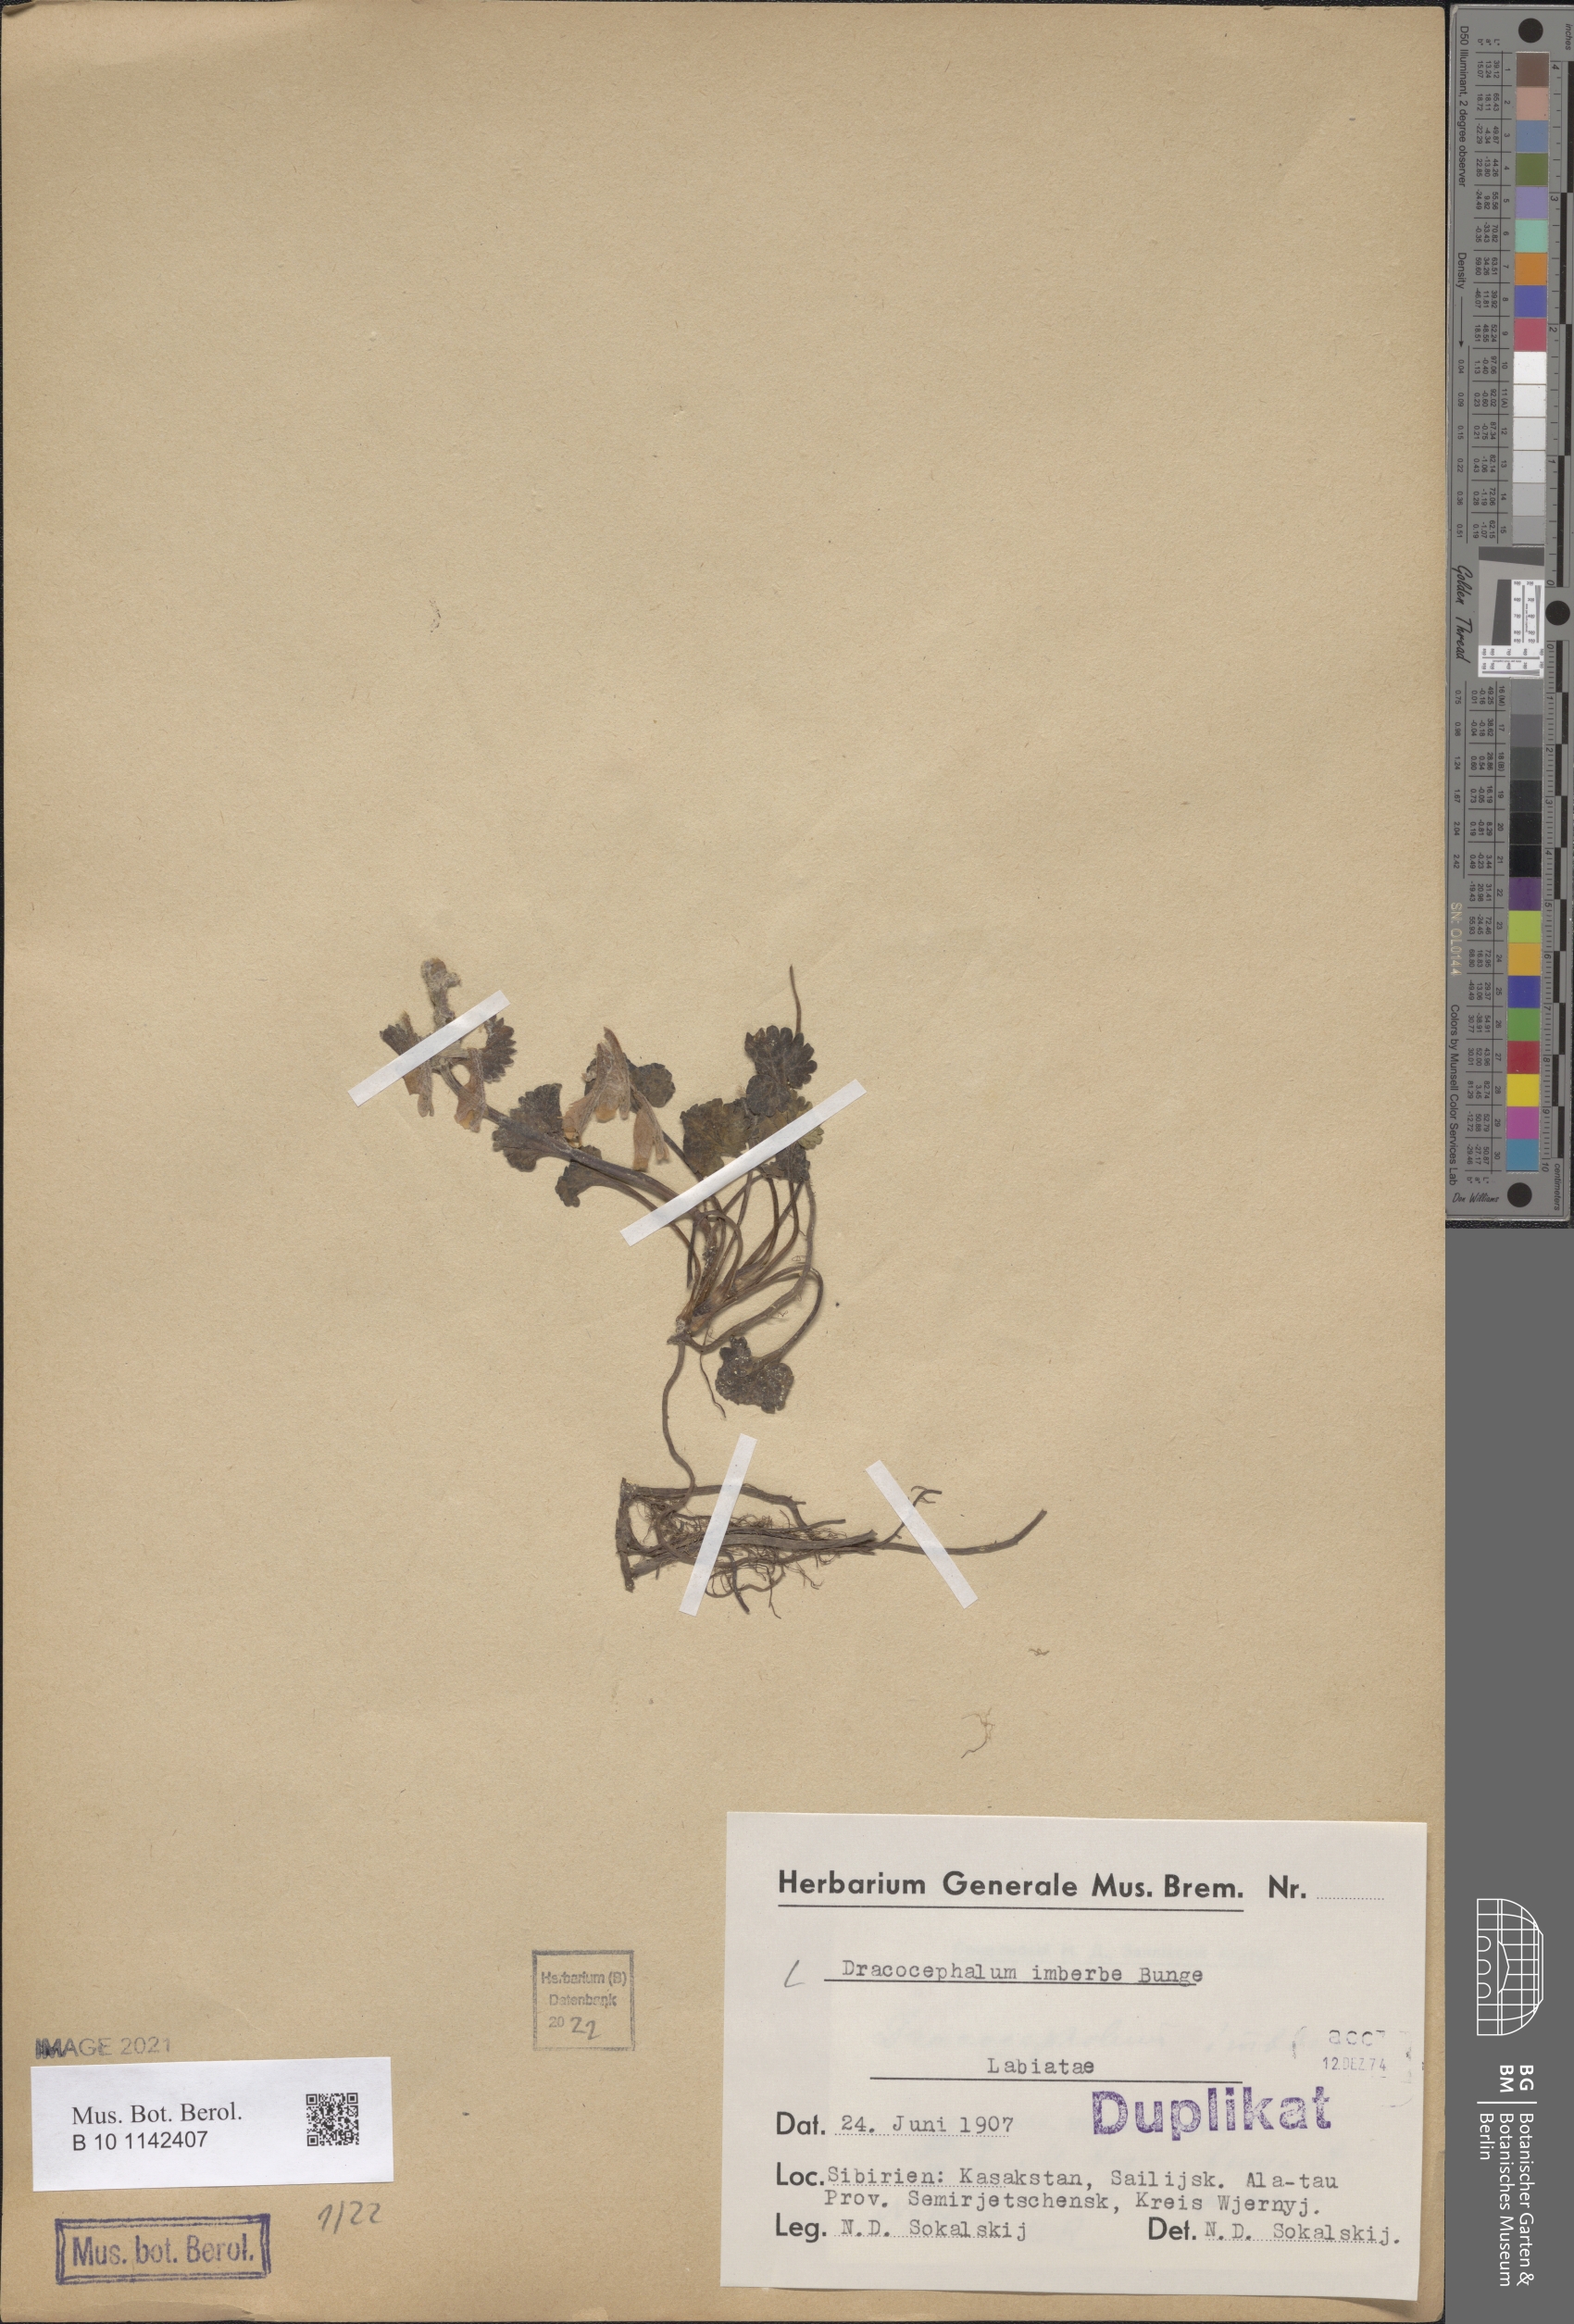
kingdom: Plantae
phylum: Tracheophyta
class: Magnoliopsida
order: Lamiales
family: Lamiaceae
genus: Dracocephalum
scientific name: Dracocephalum imberbe
